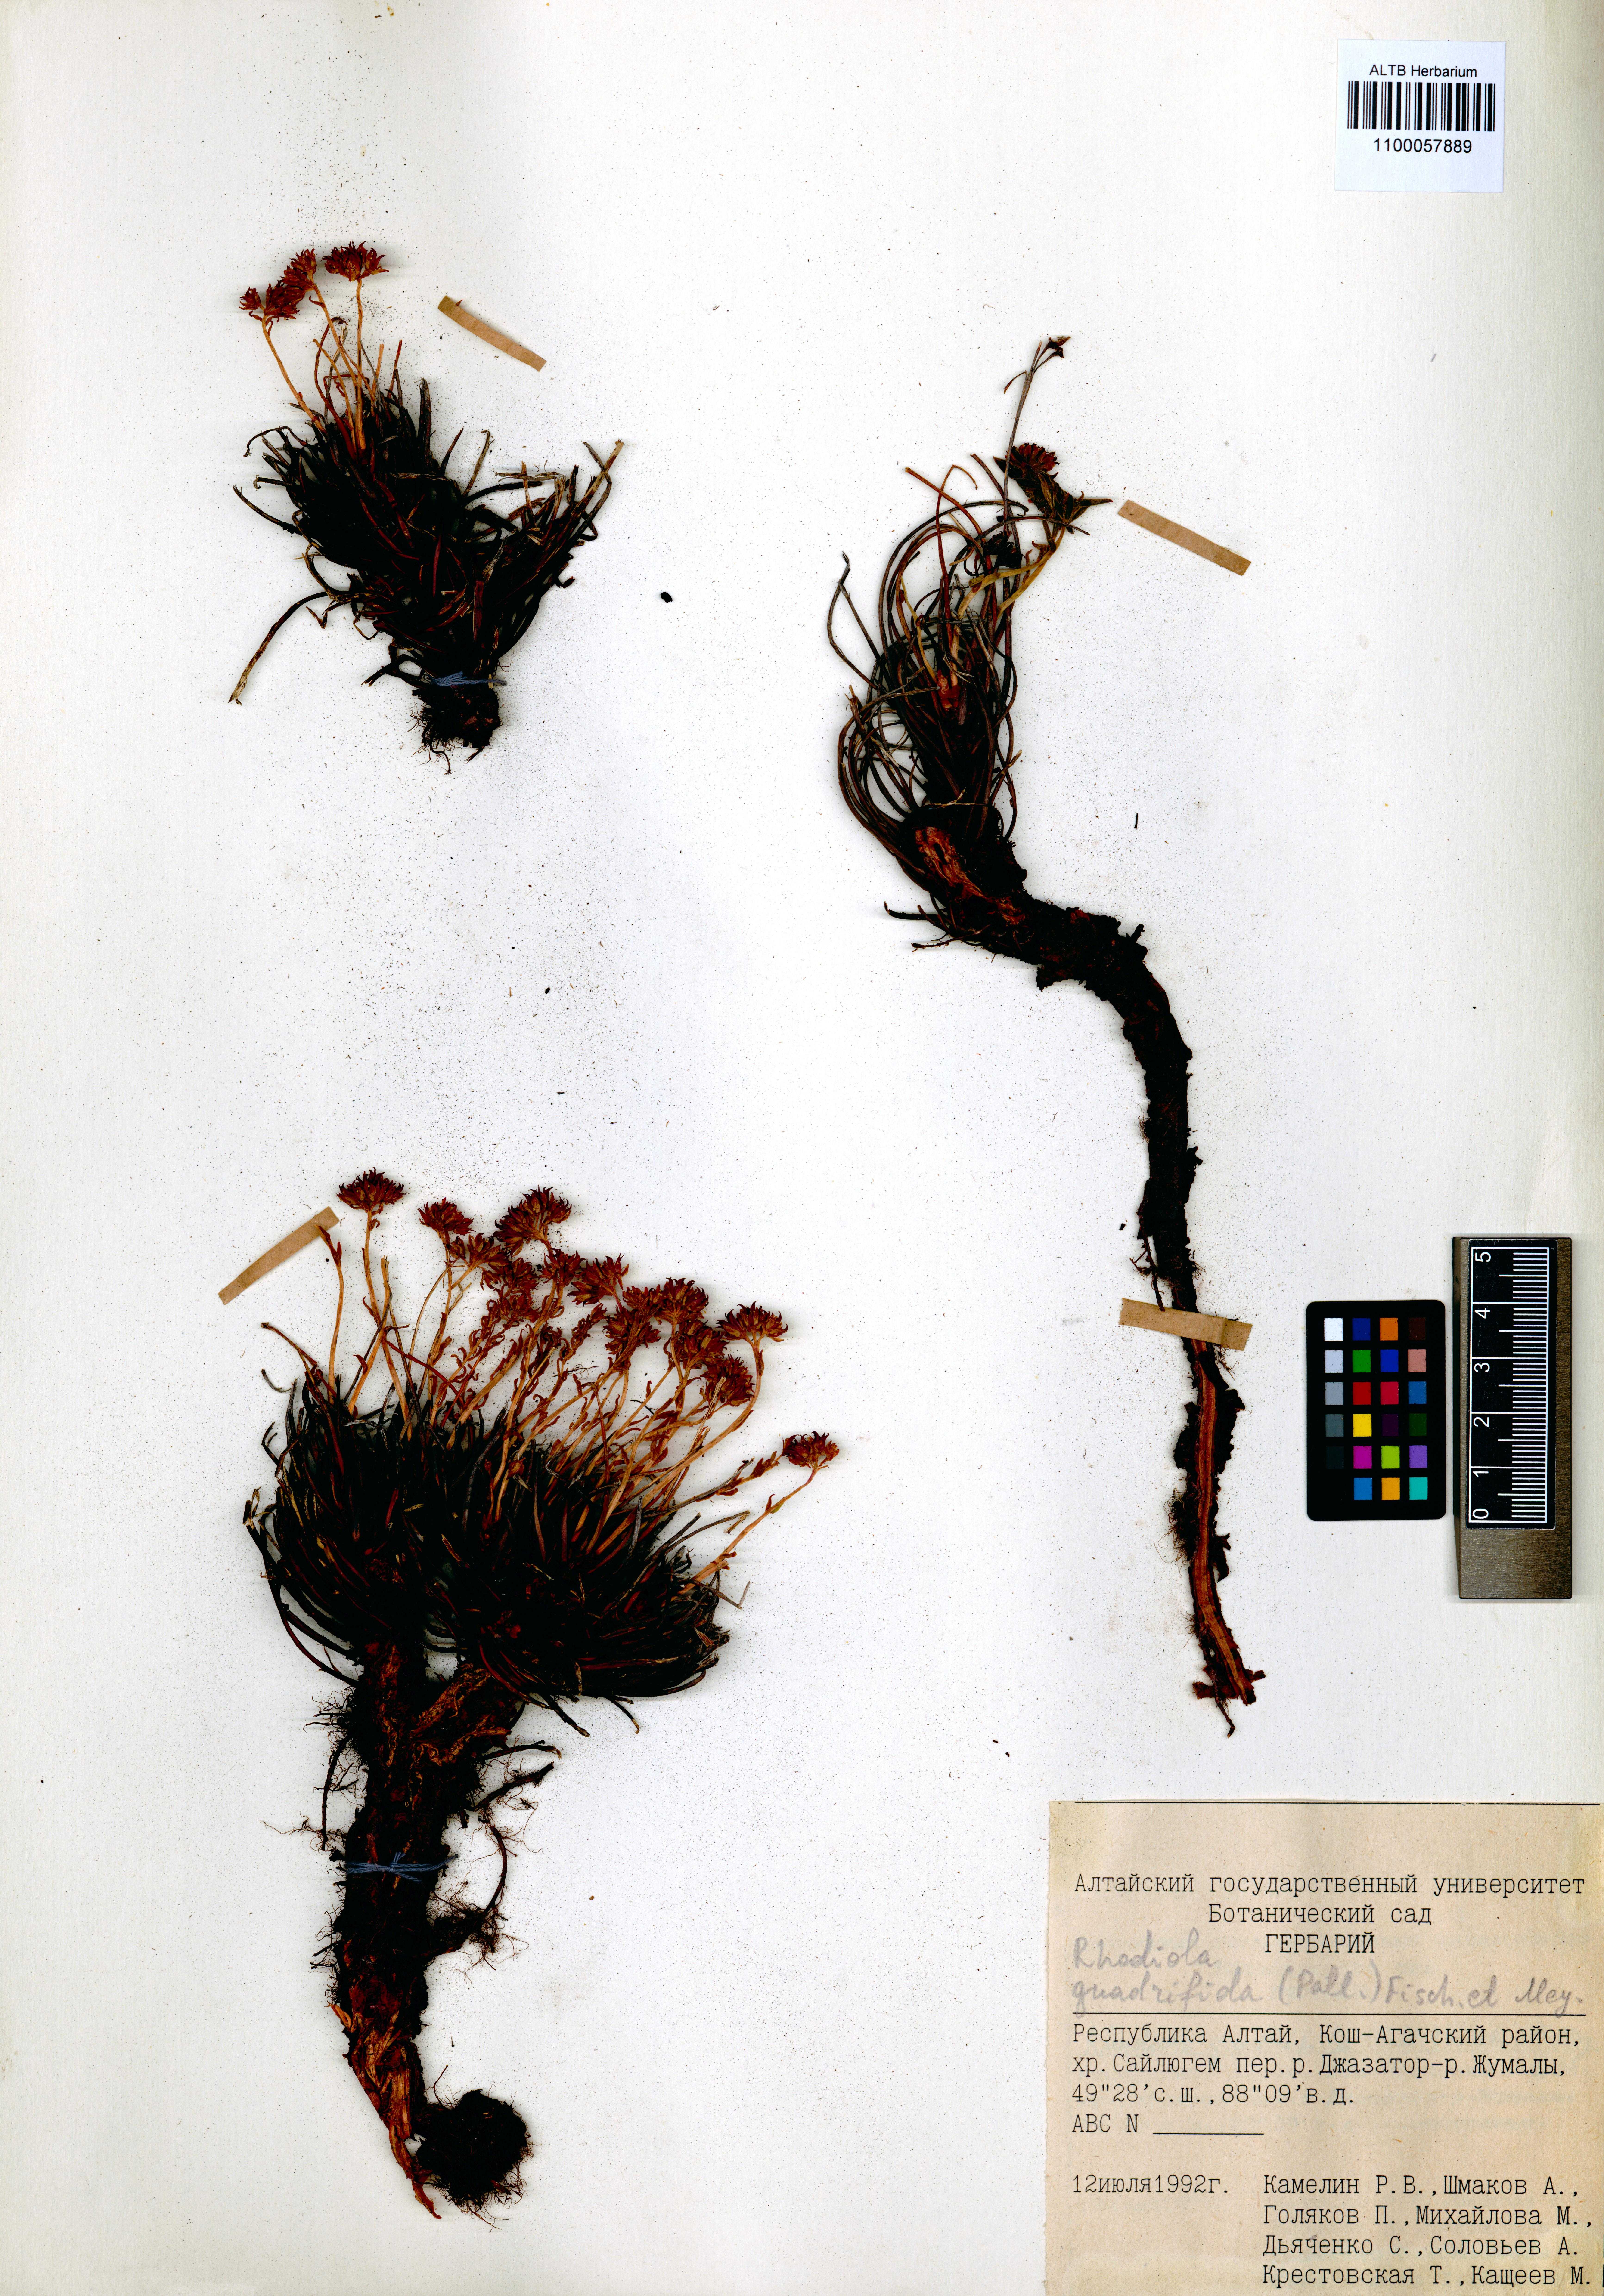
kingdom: Plantae
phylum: Tracheophyta
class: Magnoliopsida
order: Saxifragales
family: Crassulaceae
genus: Rhodiola
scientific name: Rhodiola quadrifida
